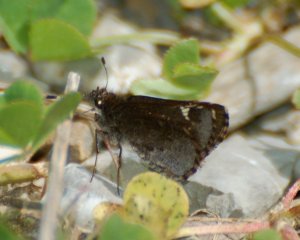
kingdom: Animalia
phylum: Arthropoda
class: Insecta
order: Lepidoptera
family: Hesperiidae
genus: Mastor
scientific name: Mastor vialis
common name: Common Roadside-Skipper
